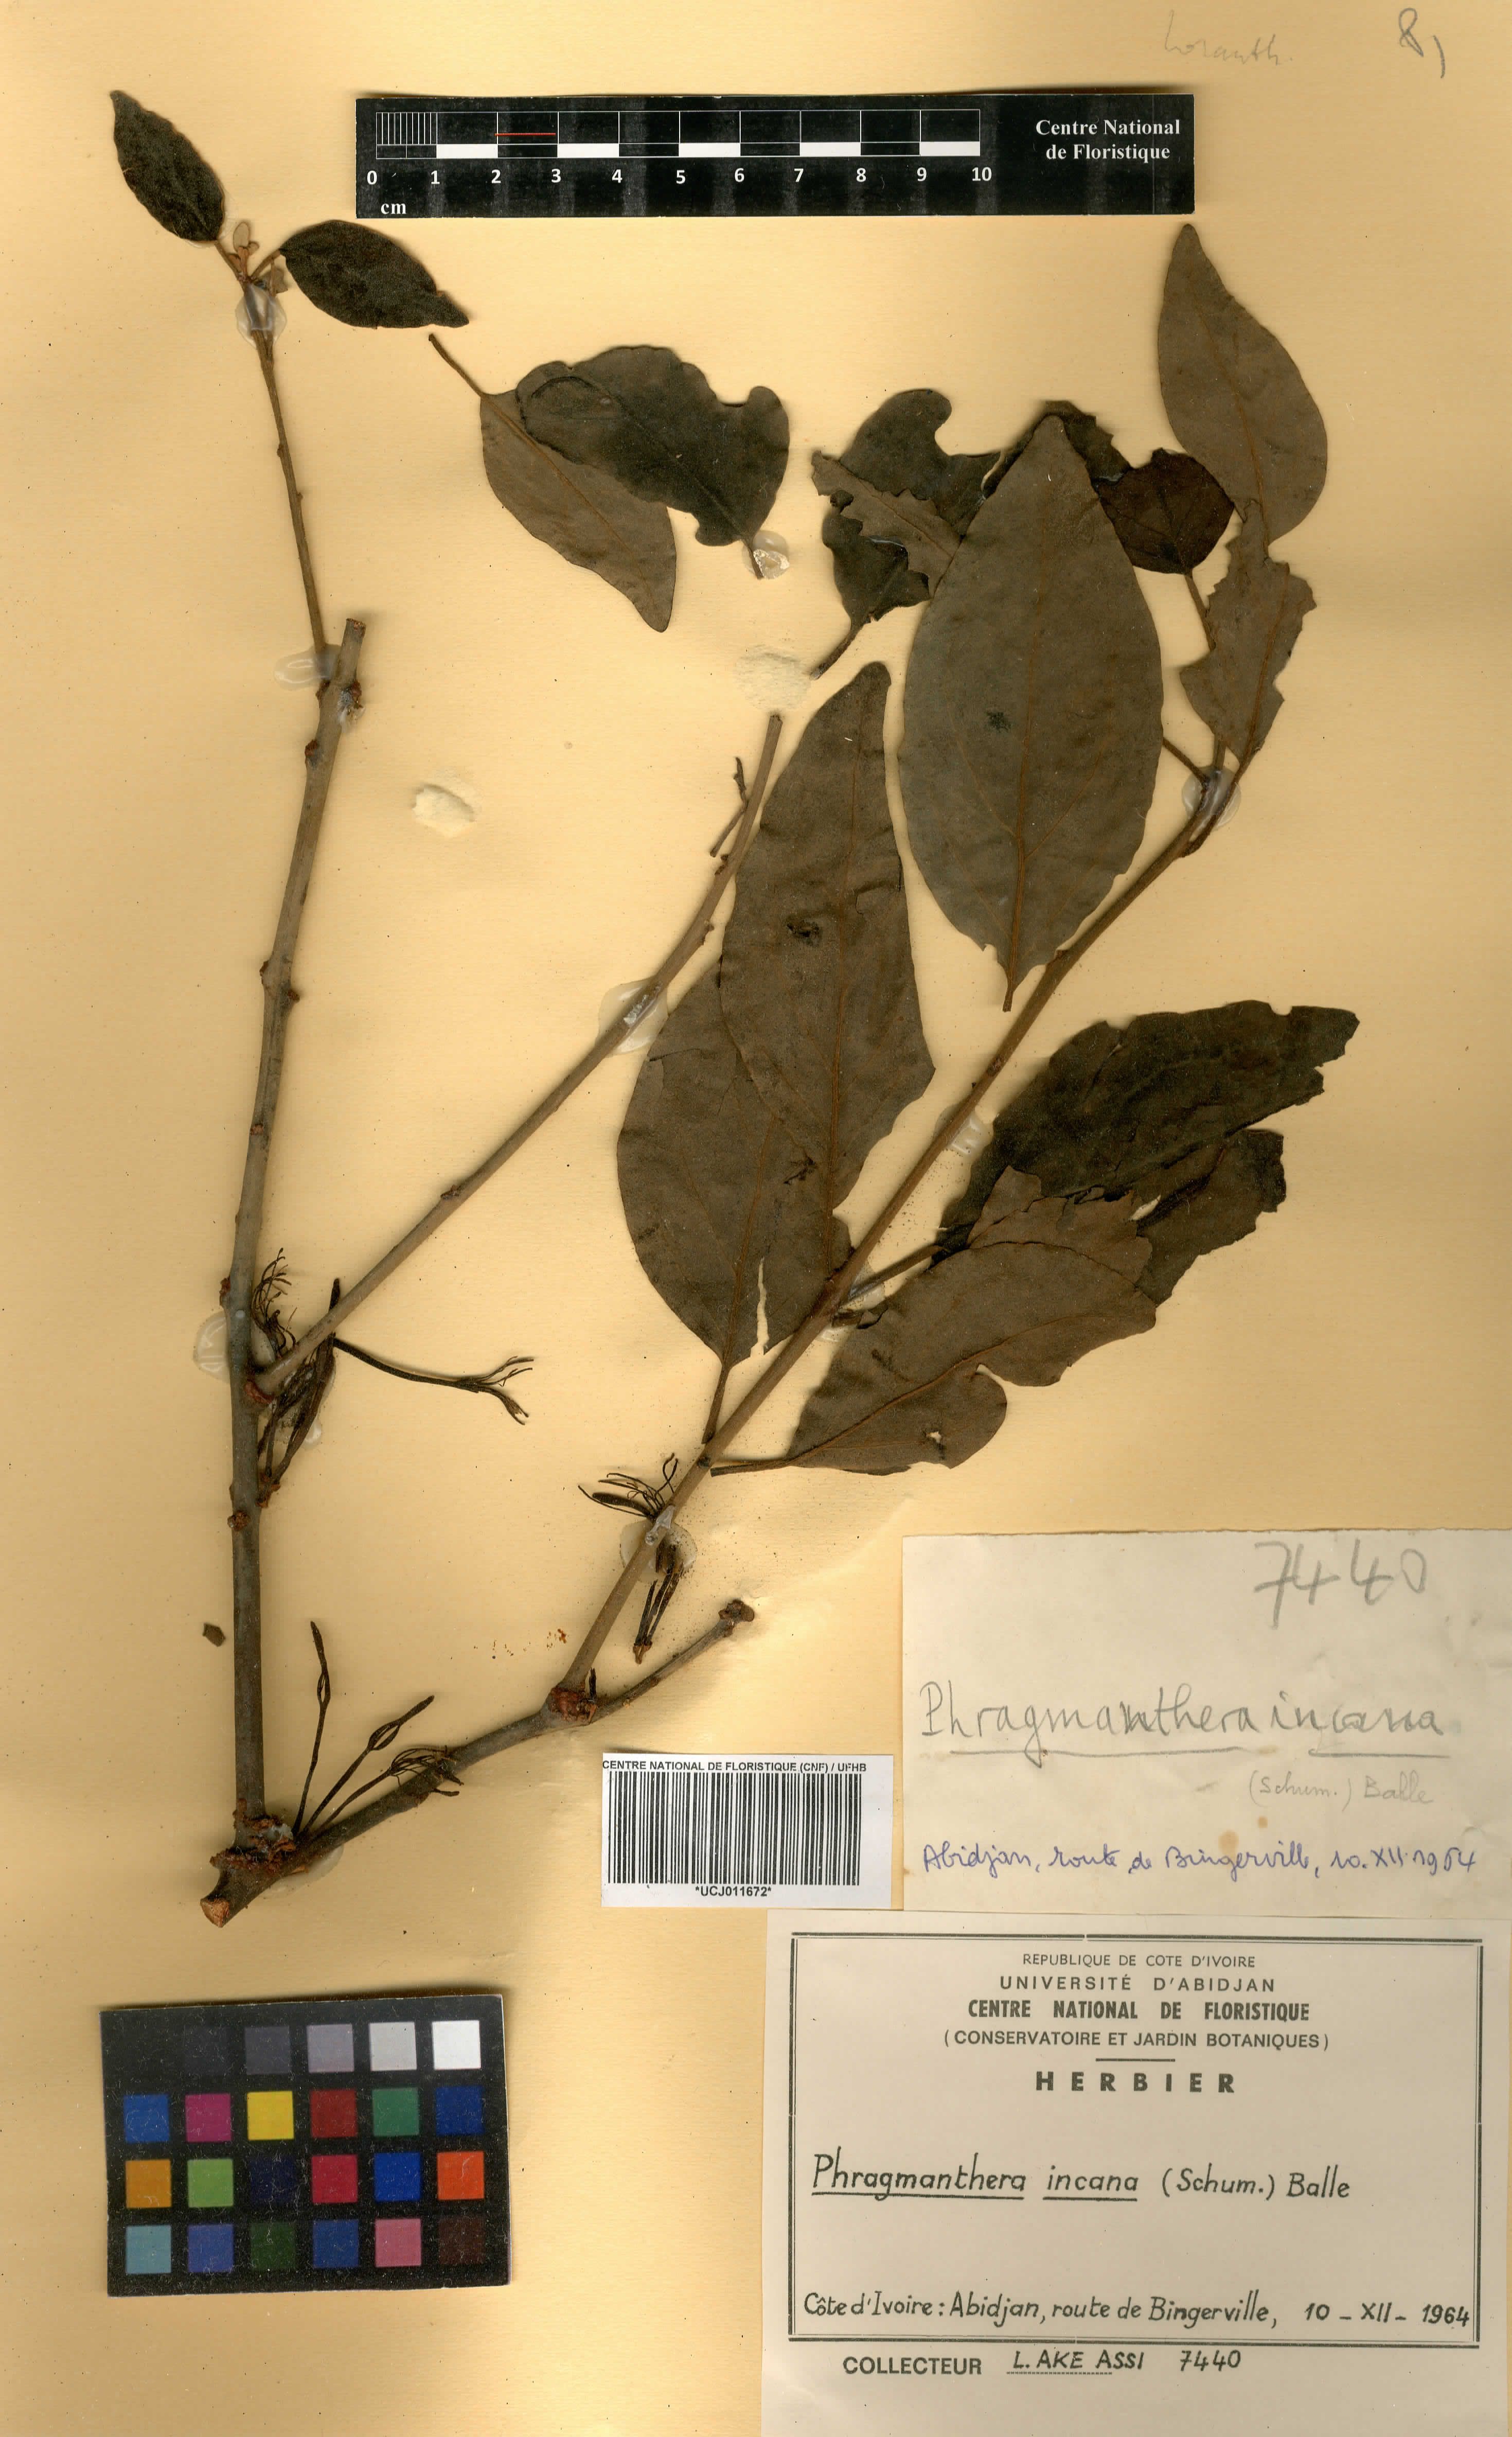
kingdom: Plantae
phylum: Tracheophyta
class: Magnoliopsida
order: Santalales
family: Loranthaceae
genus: Phragmanthera
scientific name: Phragmanthera capitata
